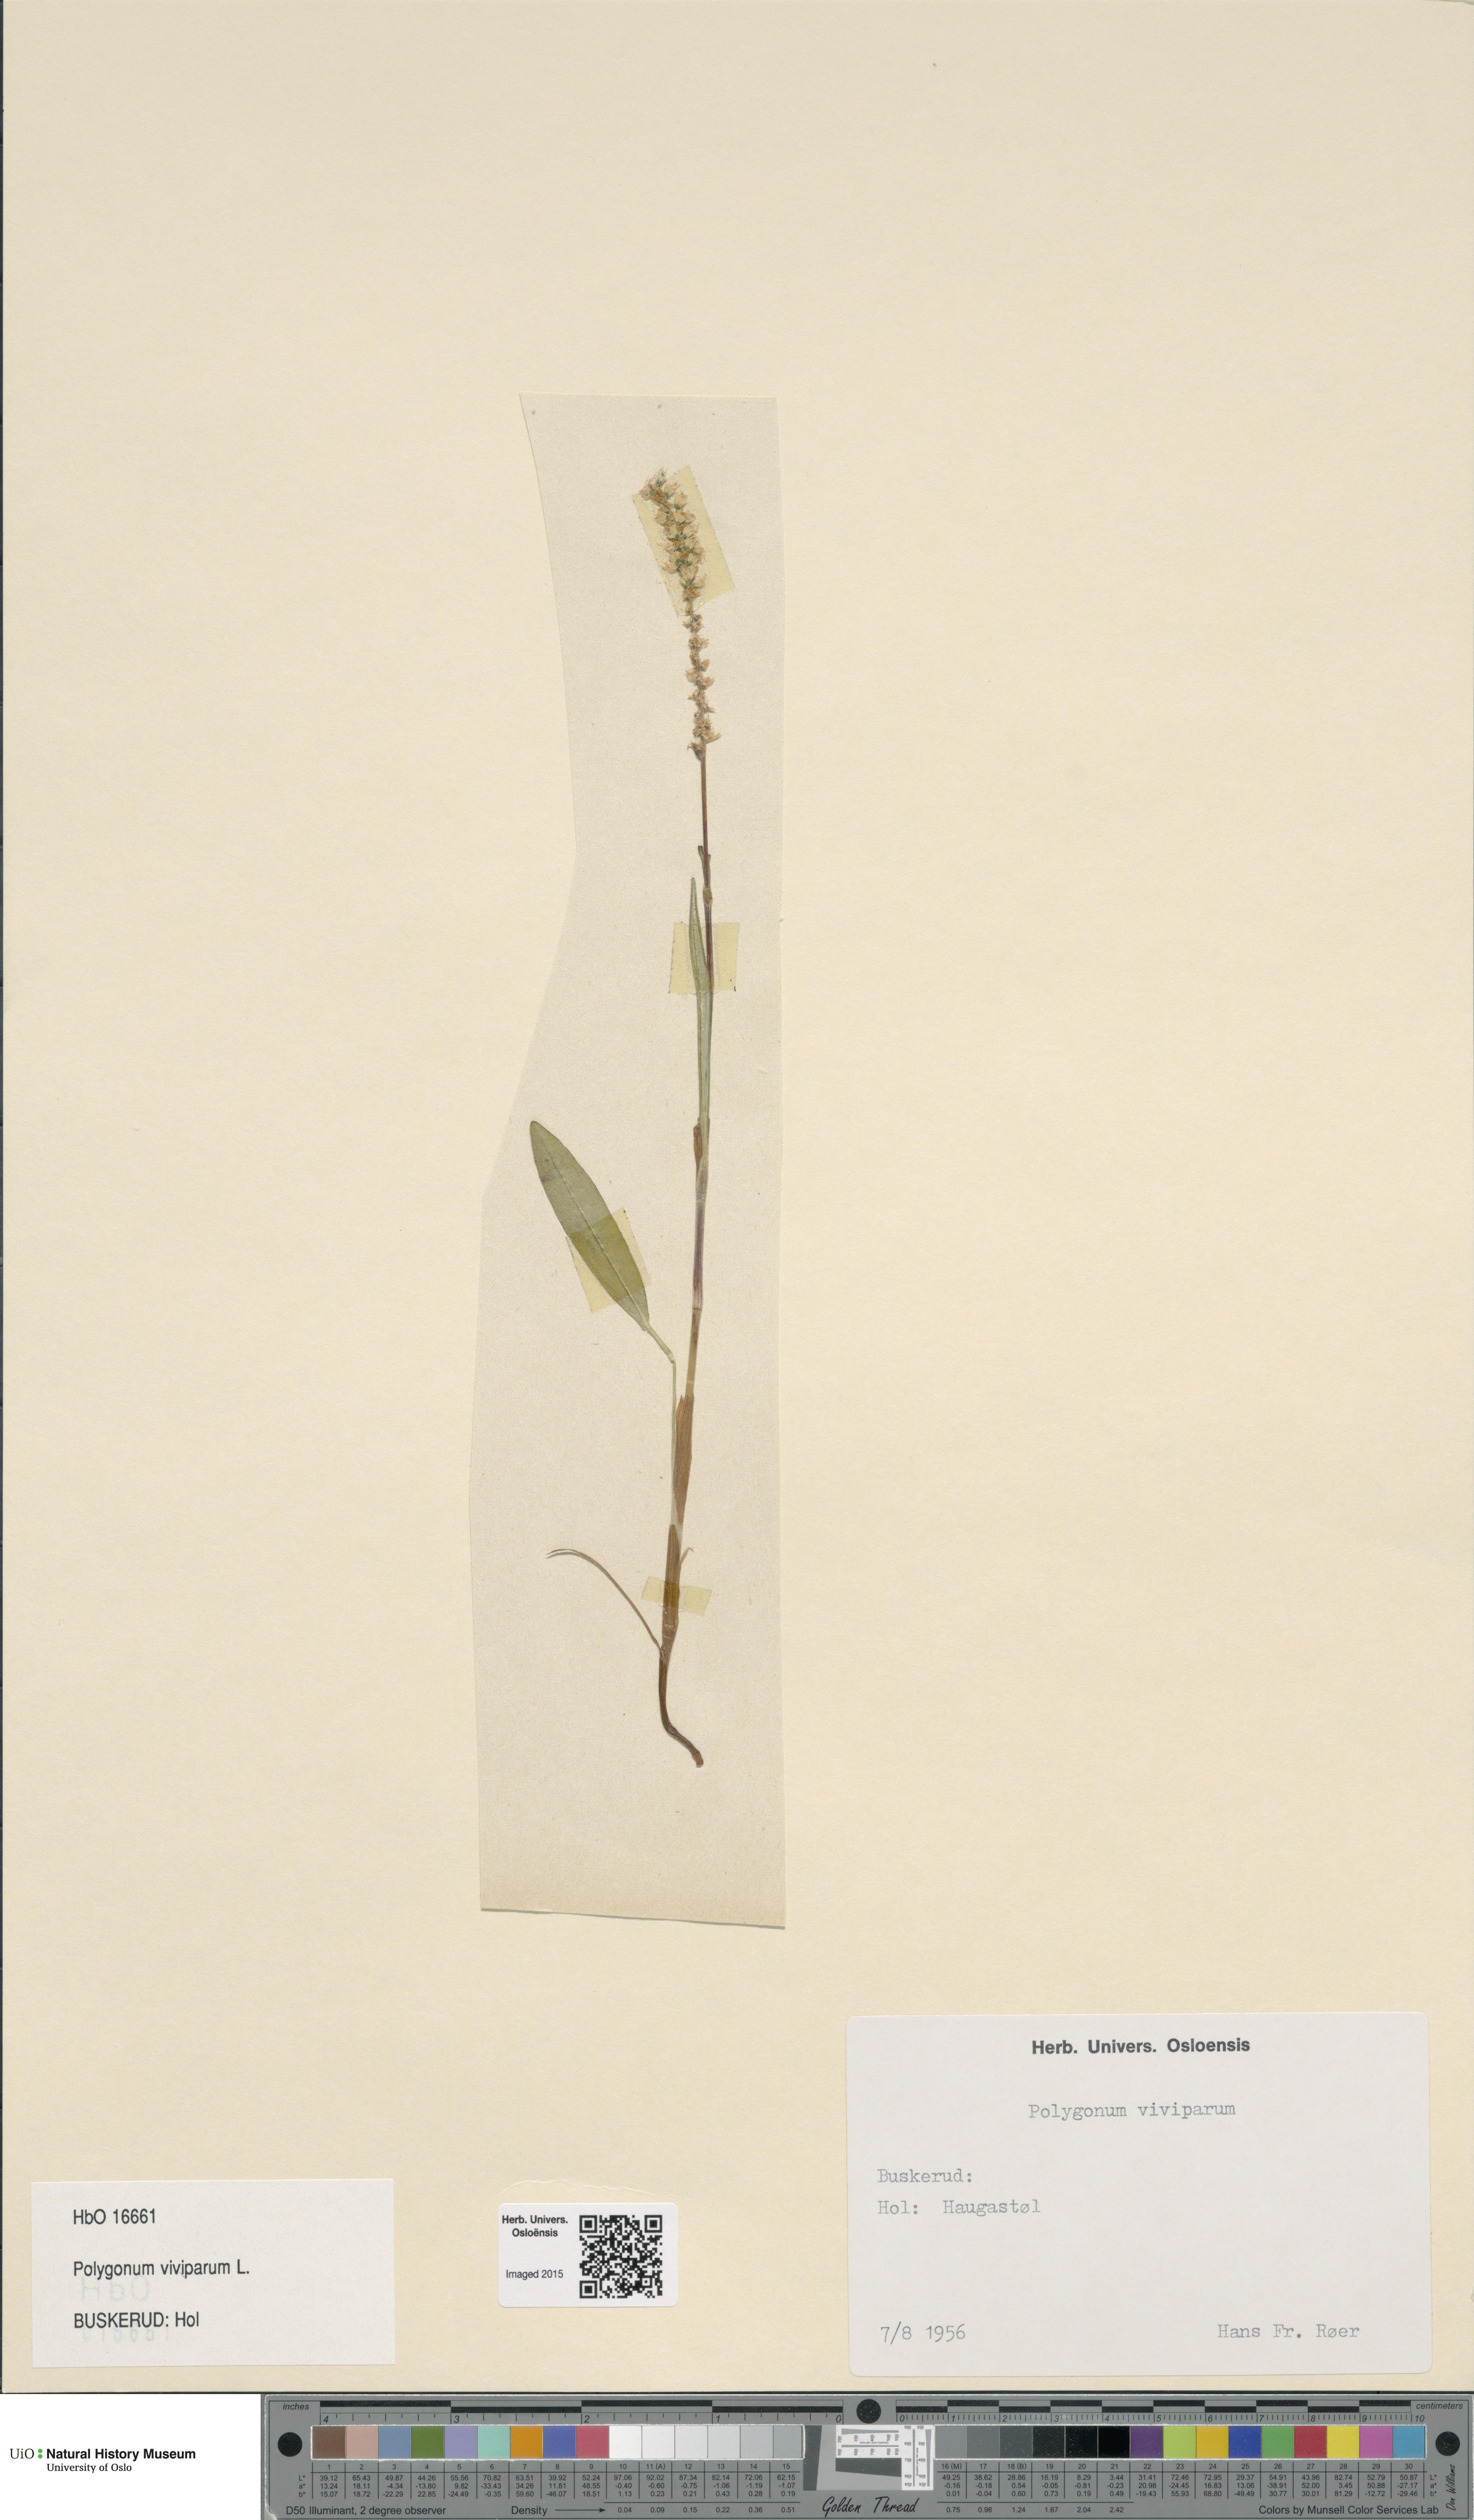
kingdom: Plantae
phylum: Tracheophyta
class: Magnoliopsida
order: Caryophyllales
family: Polygonaceae
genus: Bistorta
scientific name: Bistorta vivipara
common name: Alpine bistort
